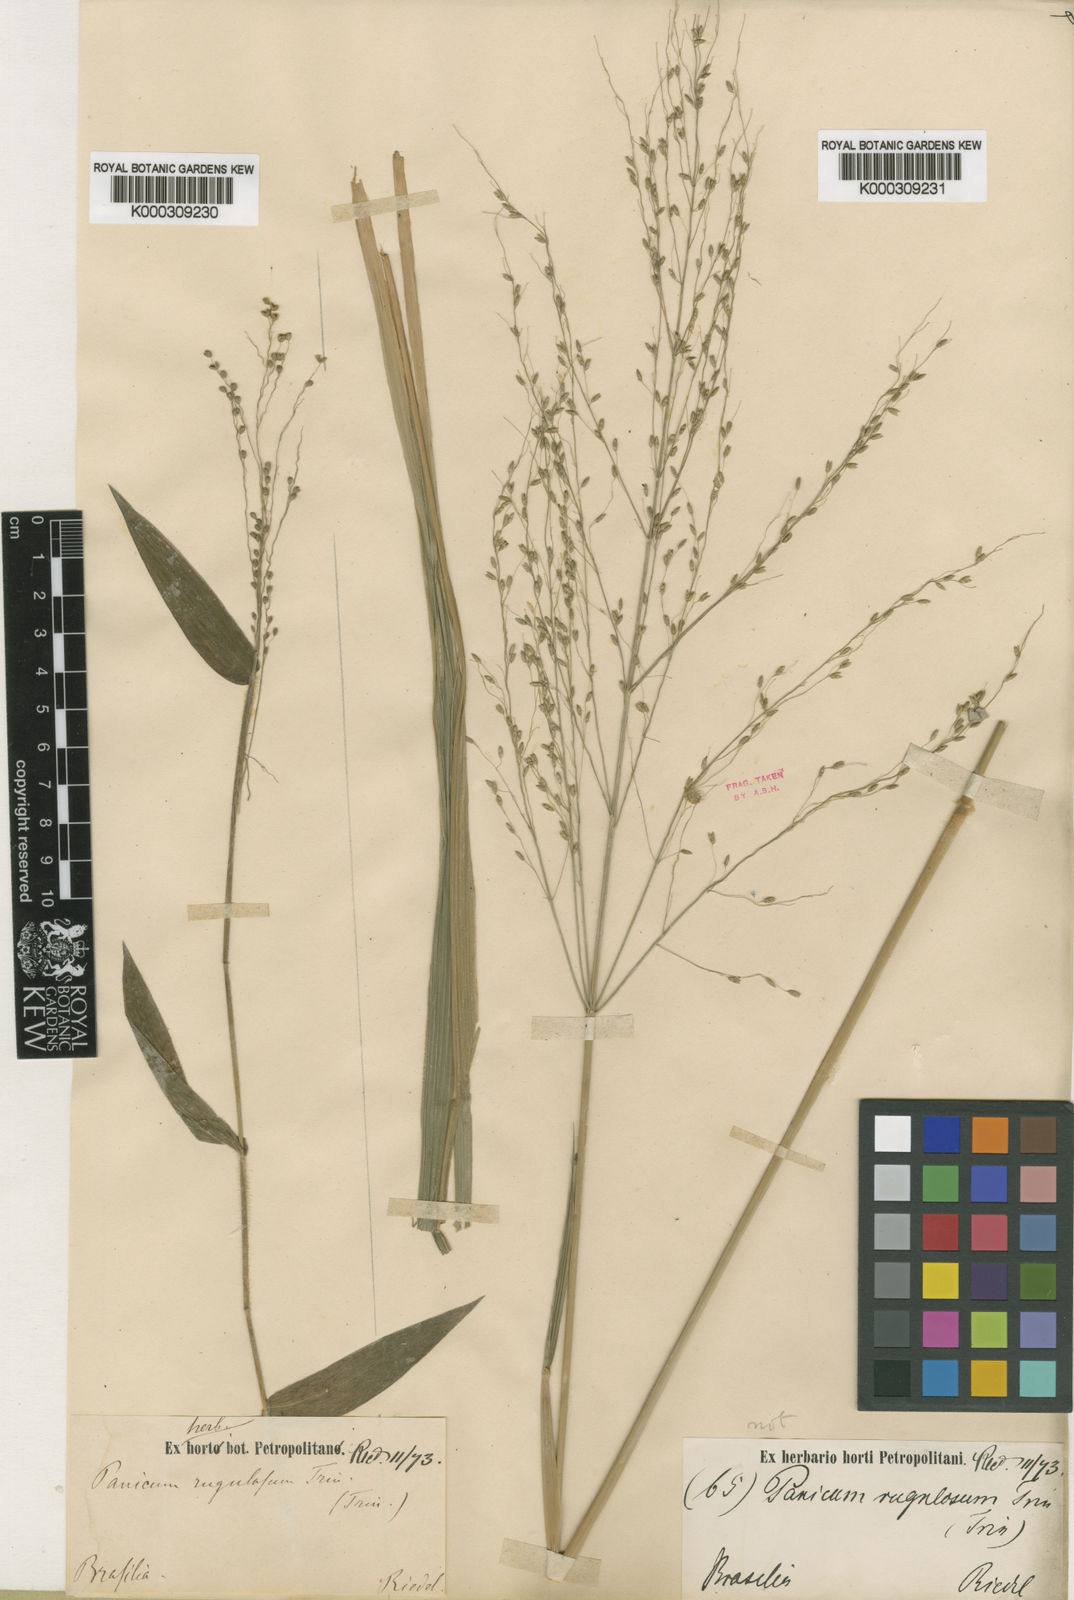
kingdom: Plantae
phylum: Tracheophyta
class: Liliopsida
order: Poales
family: Poaceae
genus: Panicum
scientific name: Panicum millegrana
